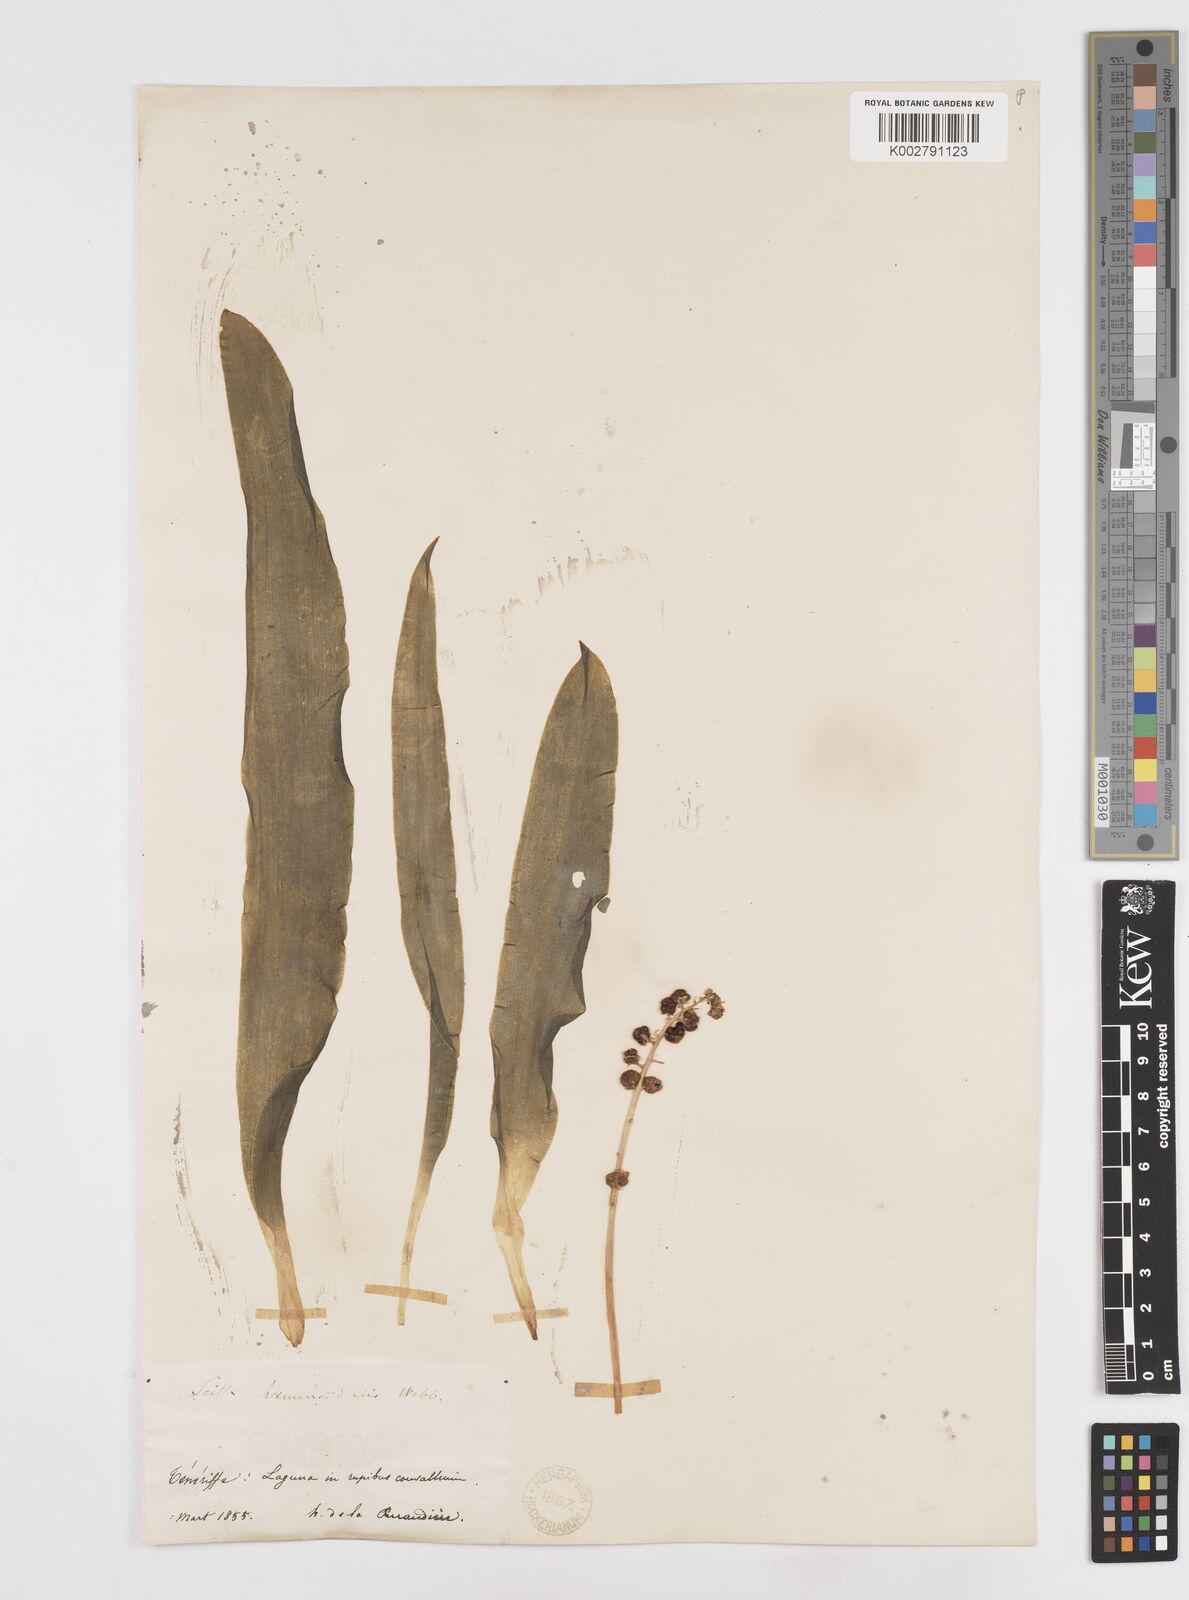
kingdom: Plantae
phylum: Tracheophyta
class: Liliopsida
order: Asparagales
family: Asparagaceae
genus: Scilla
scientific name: Scilla haemorrhoidalis
